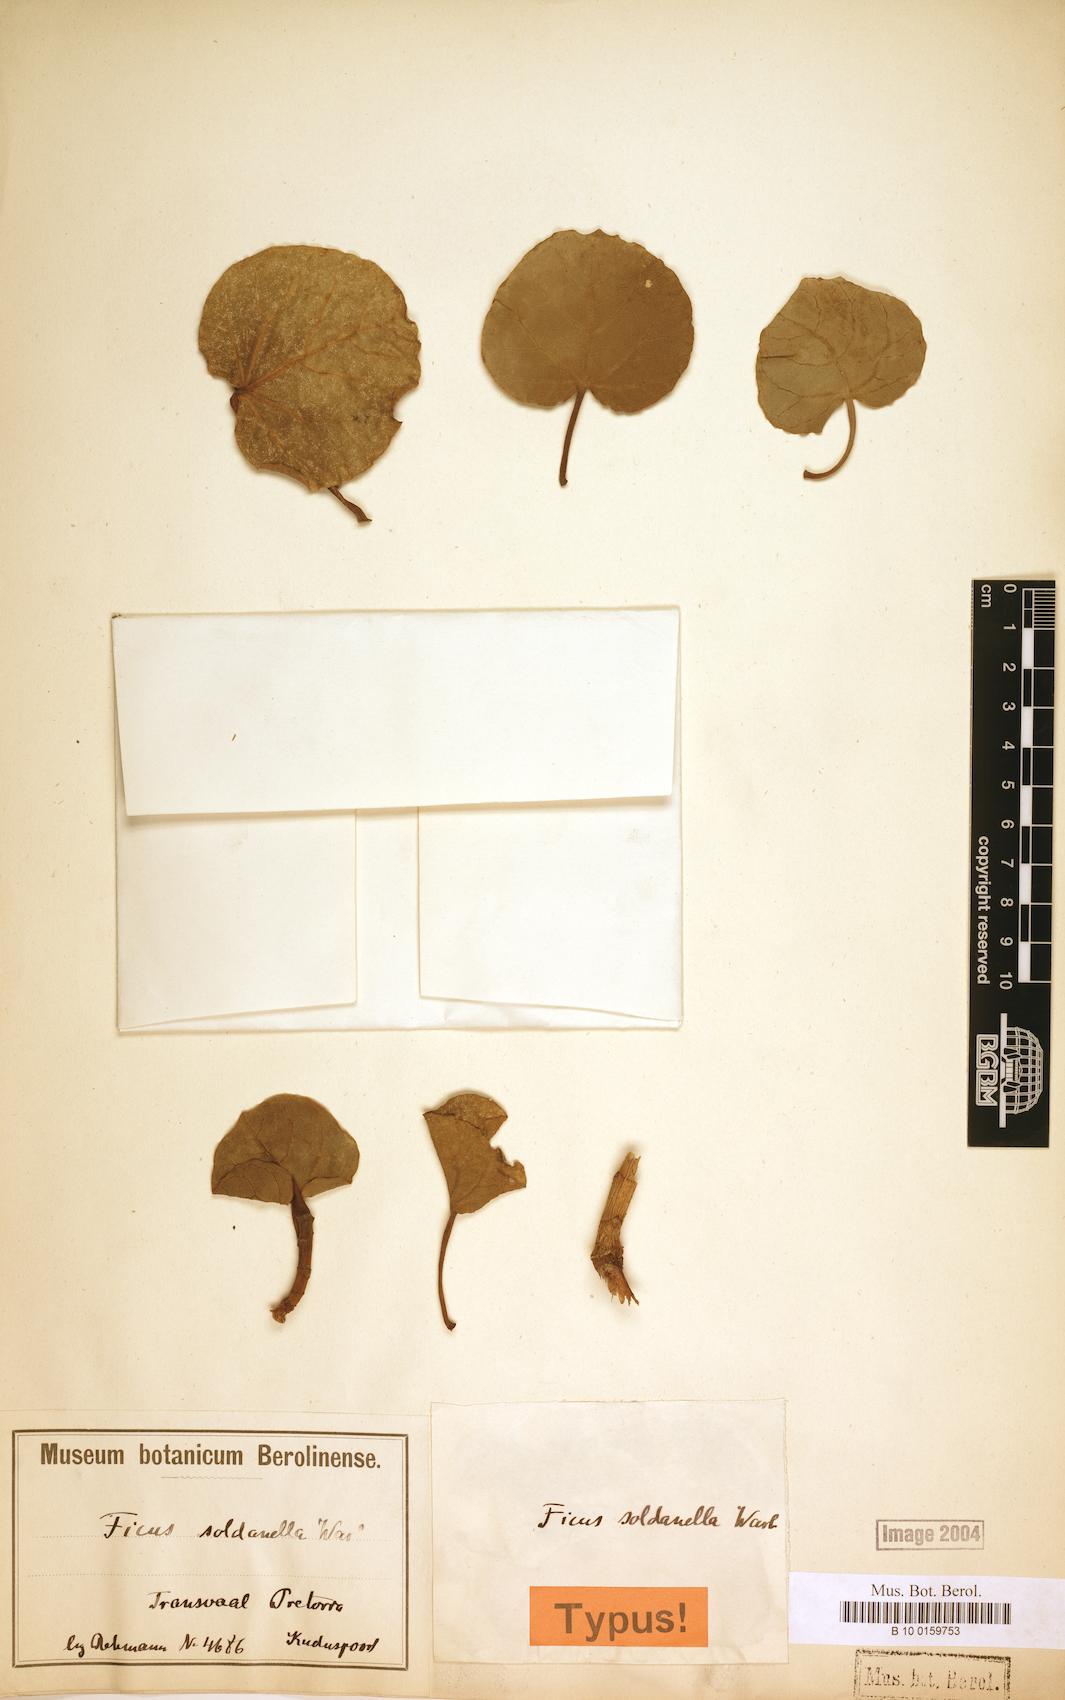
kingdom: Plantae
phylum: Tracheophyta
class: Magnoliopsida
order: Rosales
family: Moraceae
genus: Ficus
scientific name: Ficus abutilifolia
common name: Large-leaved rock fig
